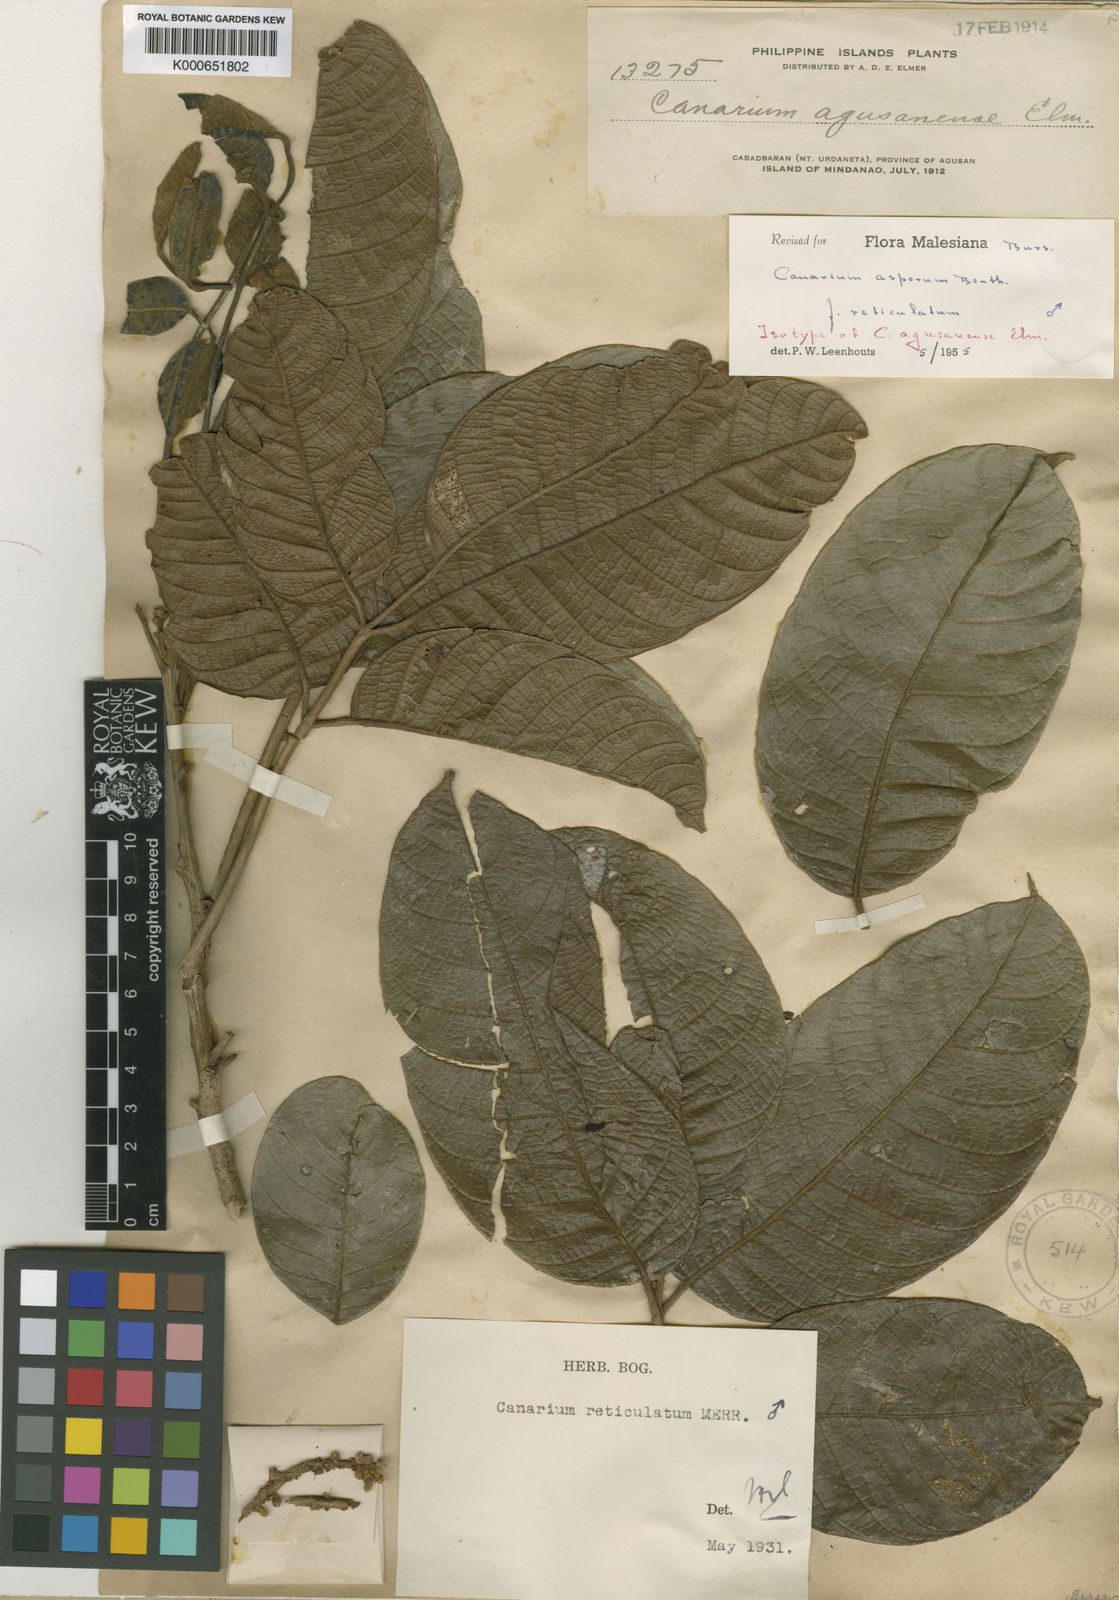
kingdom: Plantae
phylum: Tracheophyta
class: Magnoliopsida
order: Sapindales
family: Burseraceae
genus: Canarium
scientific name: Canarium asperum
